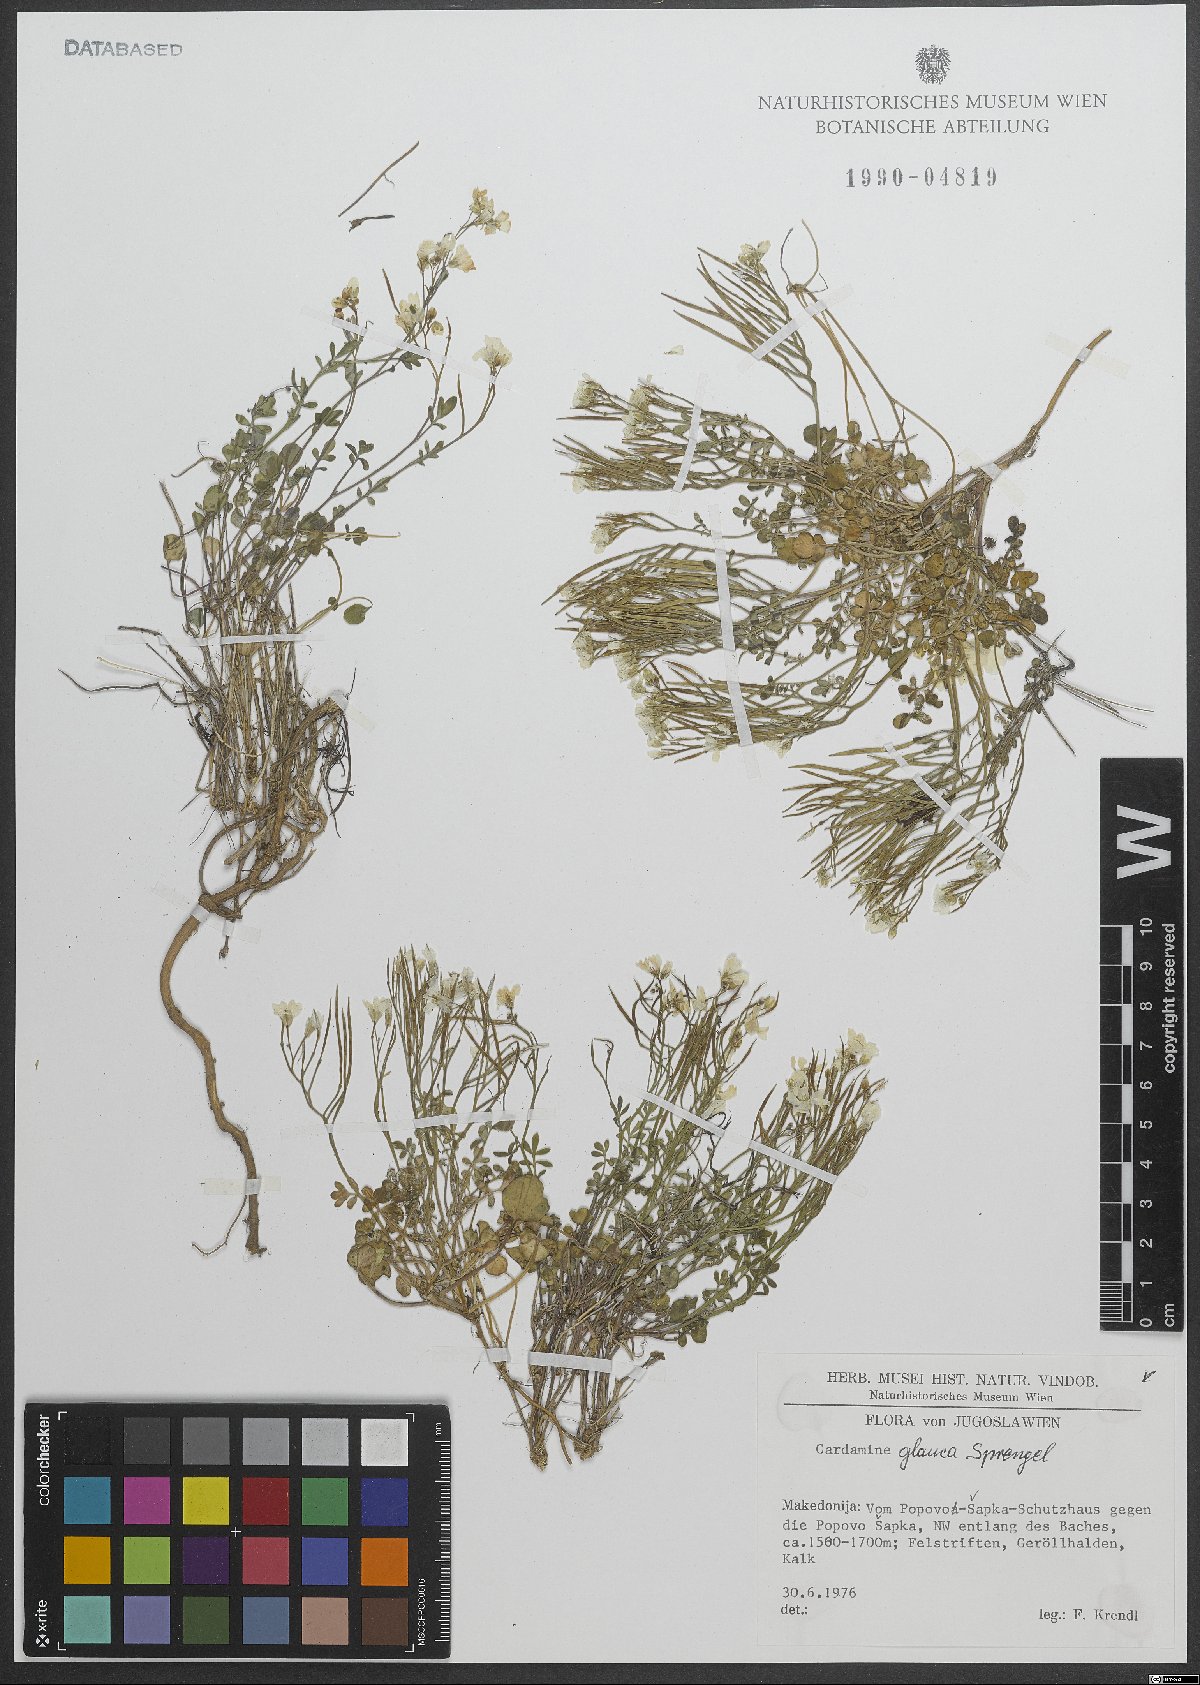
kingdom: Plantae
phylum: Tracheophyta
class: Magnoliopsida
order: Brassicales
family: Brassicaceae
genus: Cardamine
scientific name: Cardamine glauca
